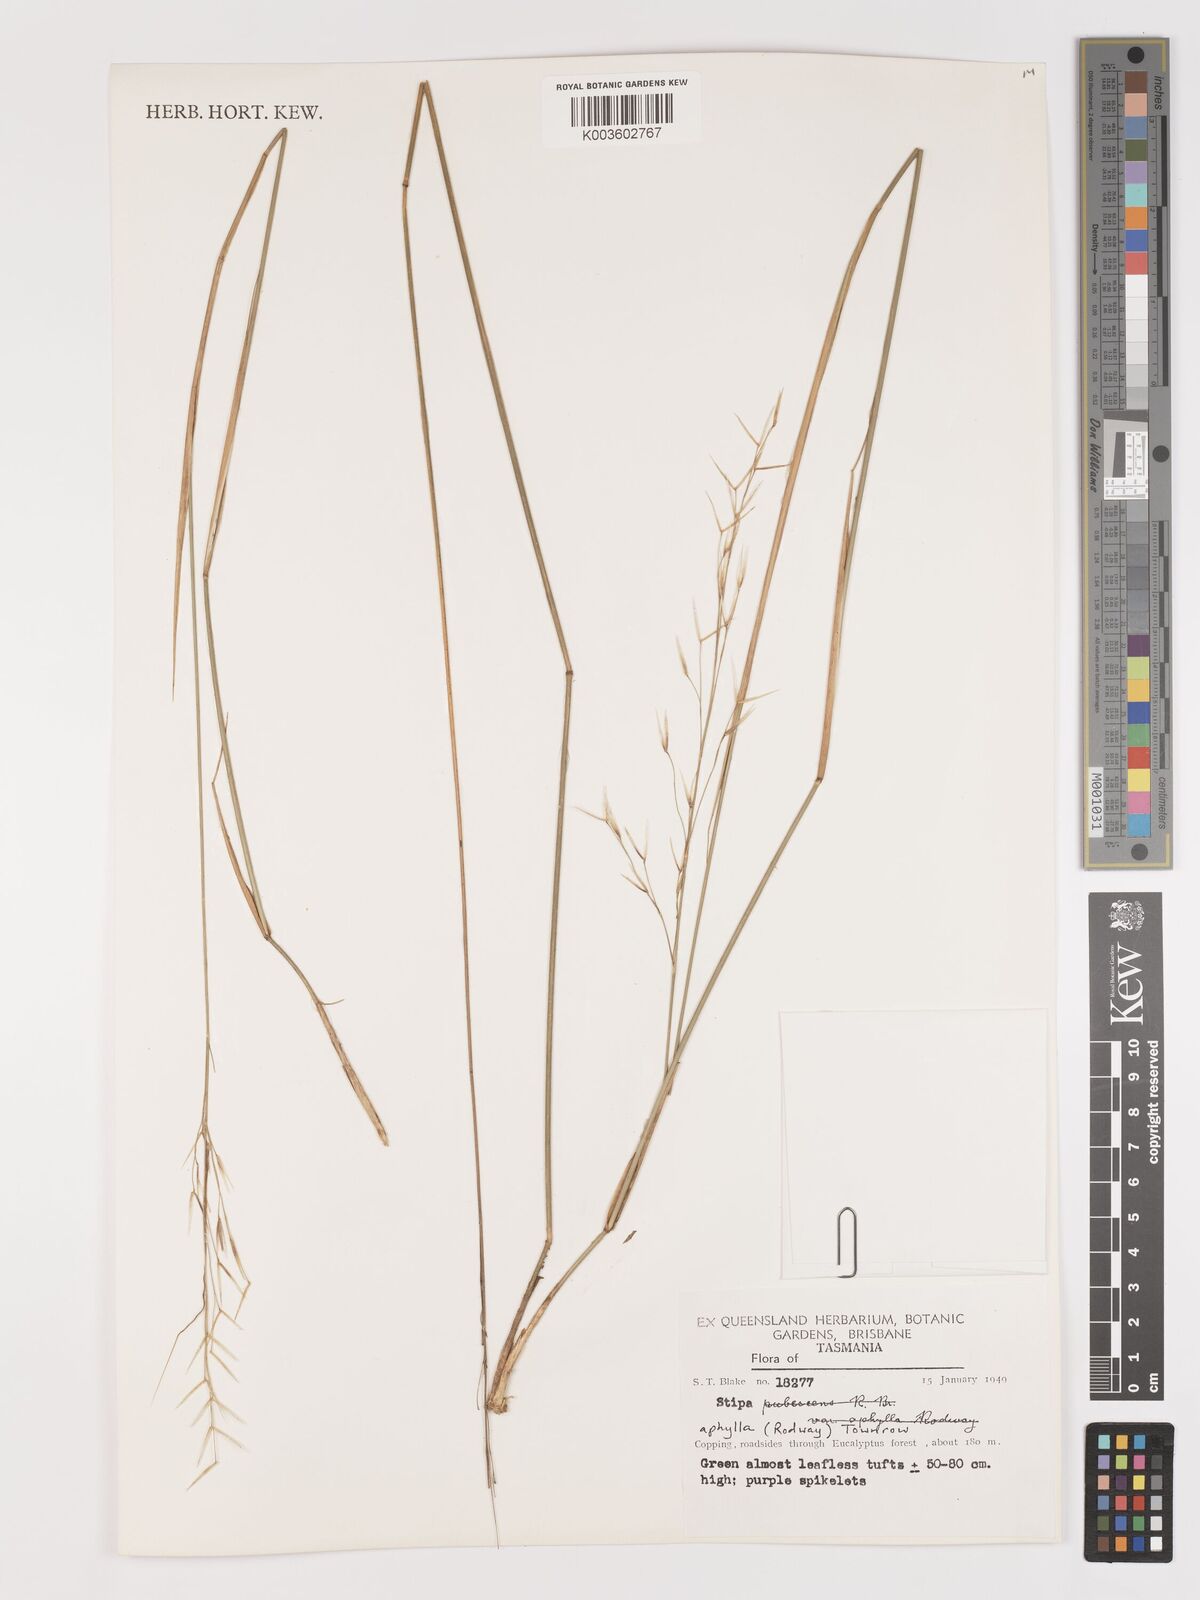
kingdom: Plantae
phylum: Tracheophyta
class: Liliopsida
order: Poales
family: Poaceae
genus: Austrostipa
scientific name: Austrostipa aphylla
